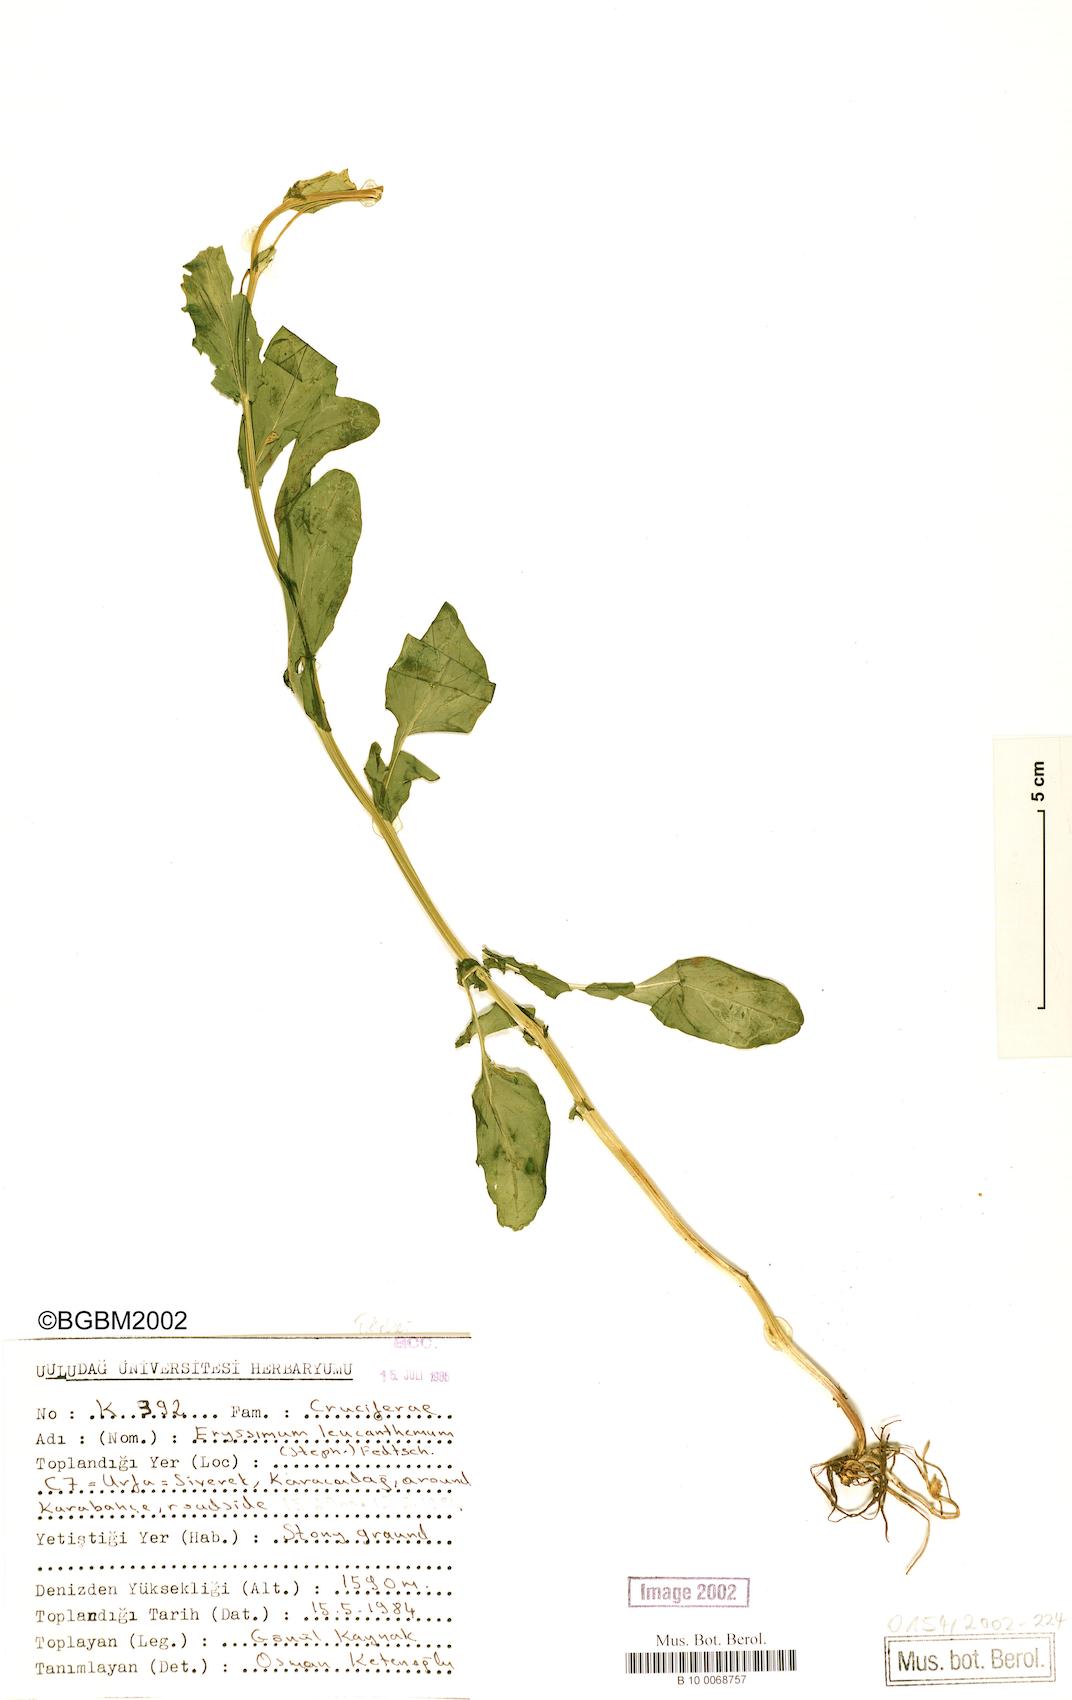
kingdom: Plantae
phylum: Tracheophyta
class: Magnoliopsida
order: Brassicales
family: Brassicaceae
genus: Erysimum
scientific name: Erysimum leucanthemum
